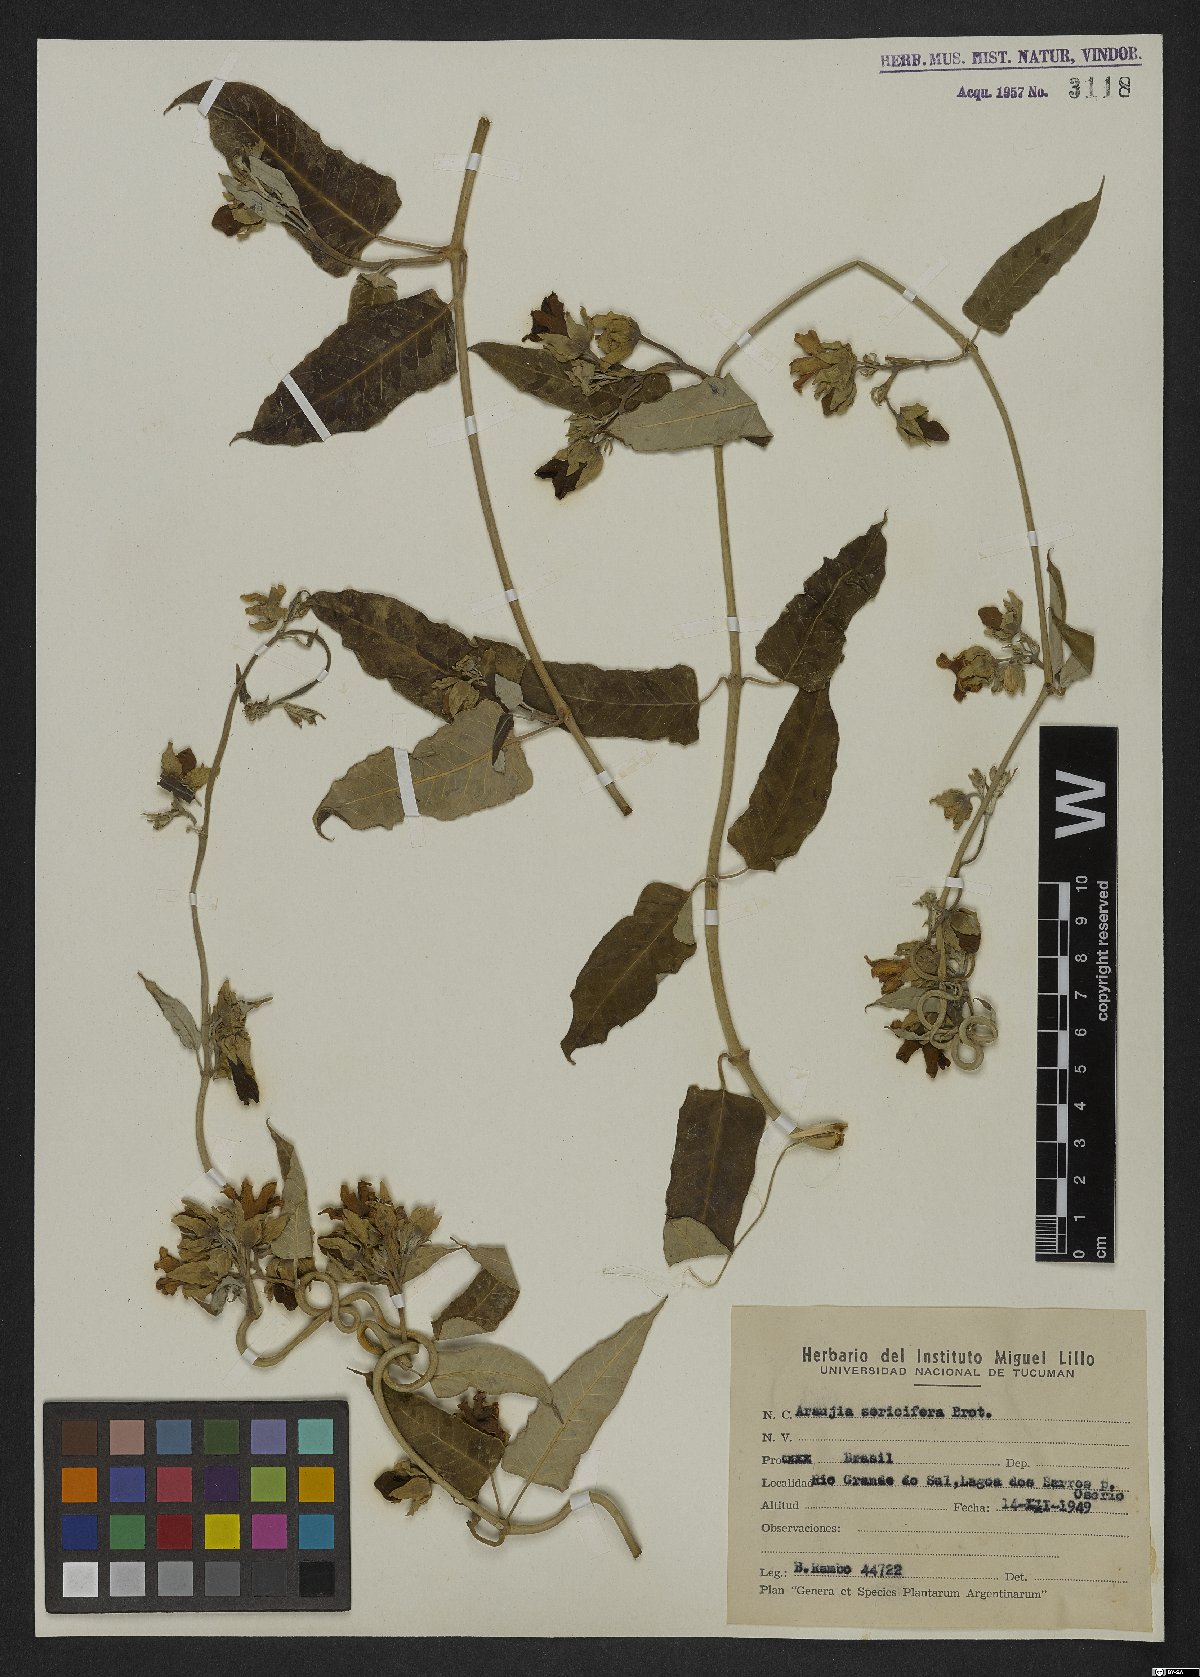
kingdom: Plantae
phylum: Tracheophyta
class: Magnoliopsida
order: Gentianales
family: Apocynaceae
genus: Araujia
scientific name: Araujia sericifera
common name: White bladderflower
